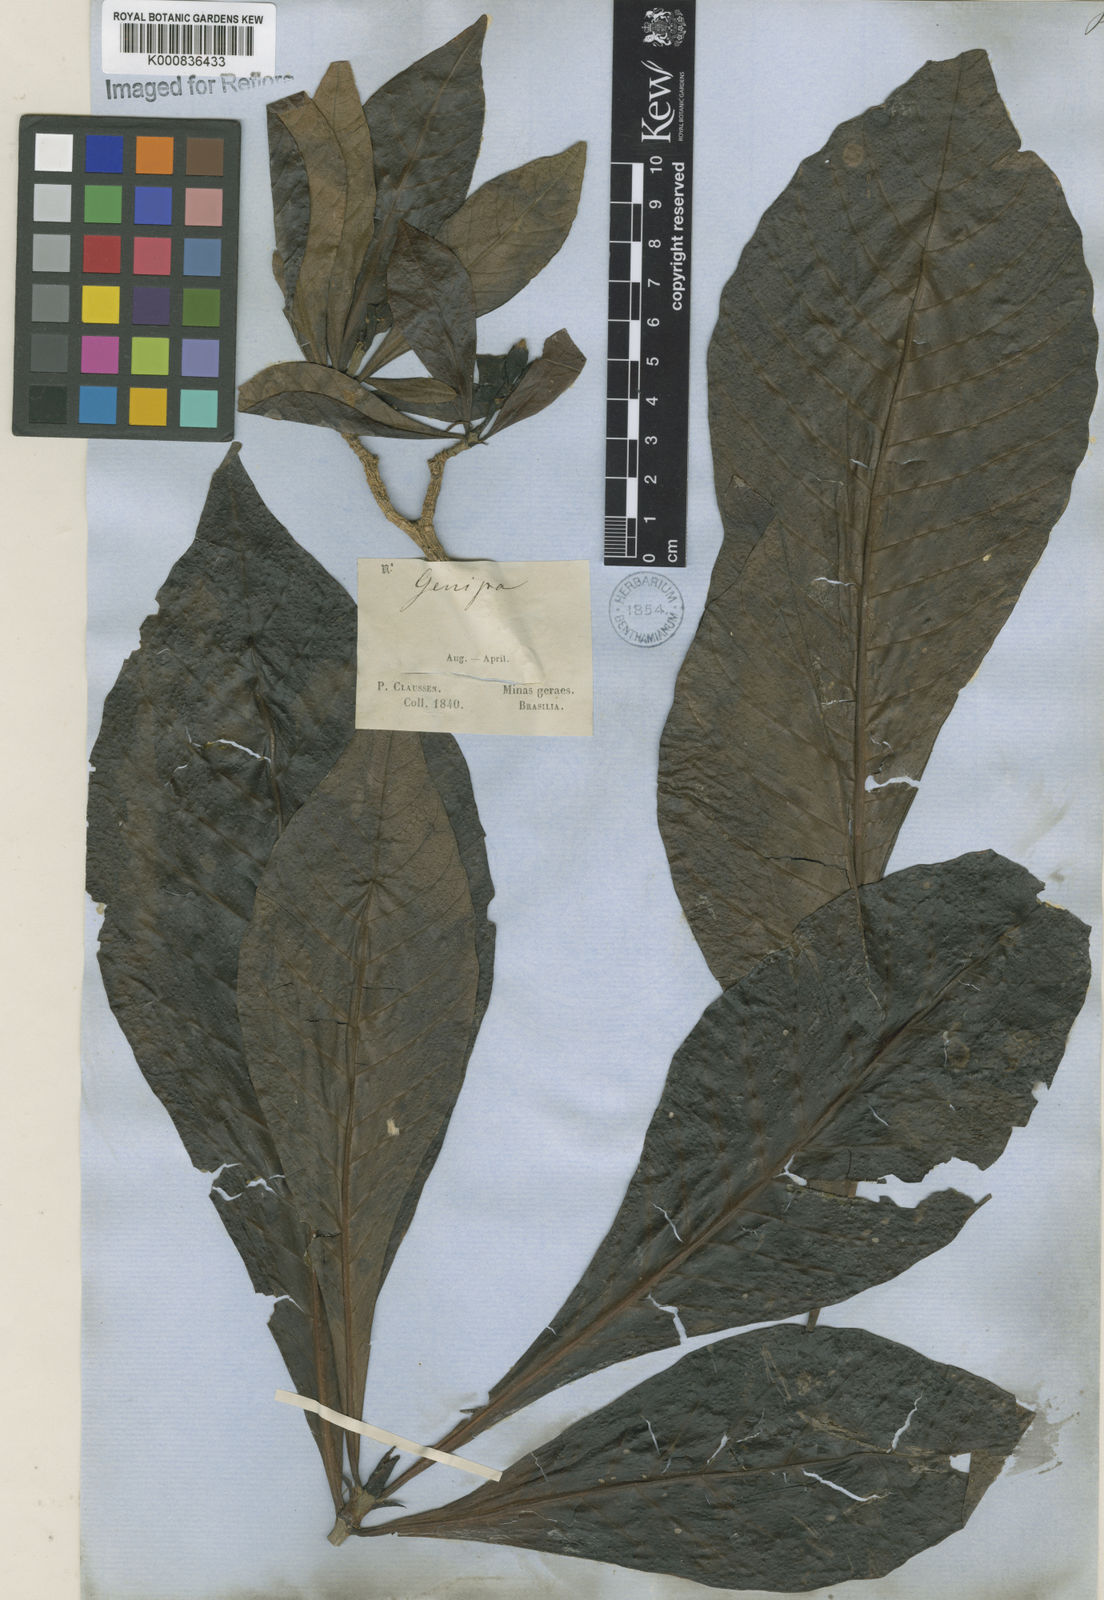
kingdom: Plantae
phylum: Tracheophyta
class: Magnoliopsida
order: Gentianales
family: Rubiaceae
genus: Genipa
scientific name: Genipa americana
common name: Genipap
